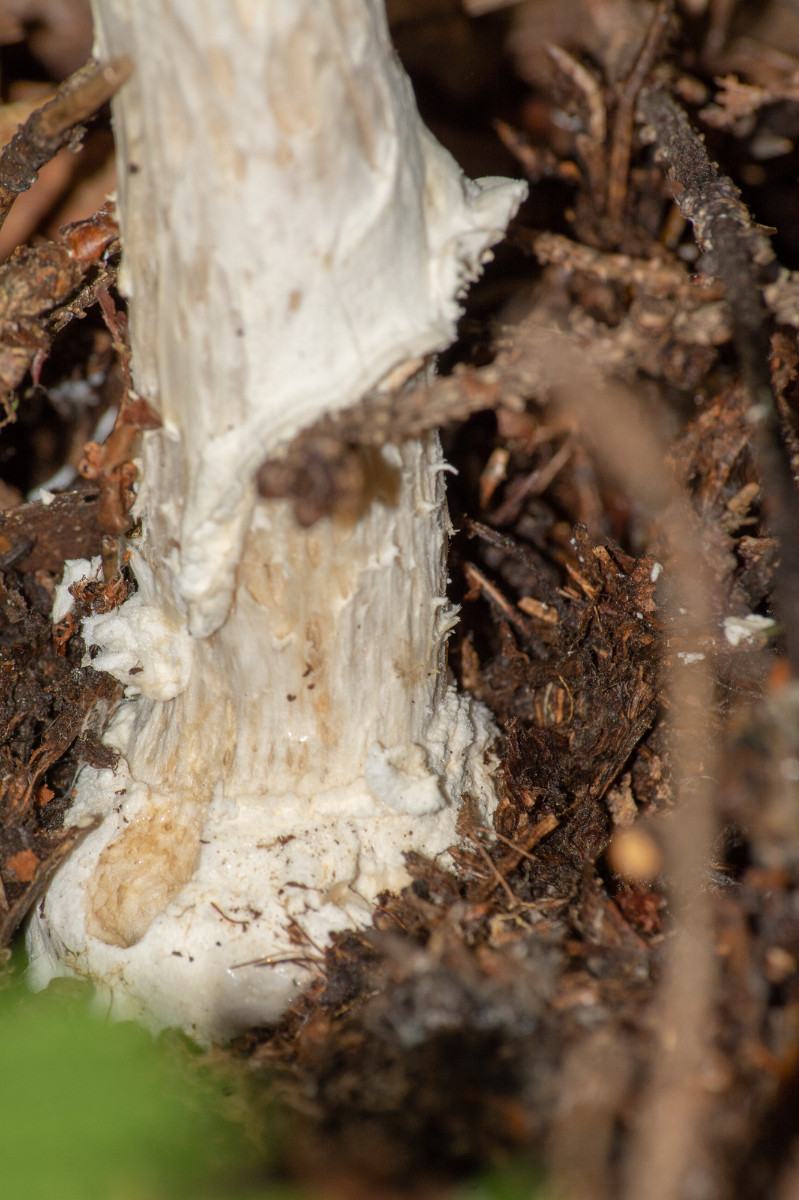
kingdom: Fungi
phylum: Basidiomycota
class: Agaricomycetes
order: Agaricales
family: Amanitaceae
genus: Amanita
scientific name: Amanita pantherina
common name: panter-fluesvamp
